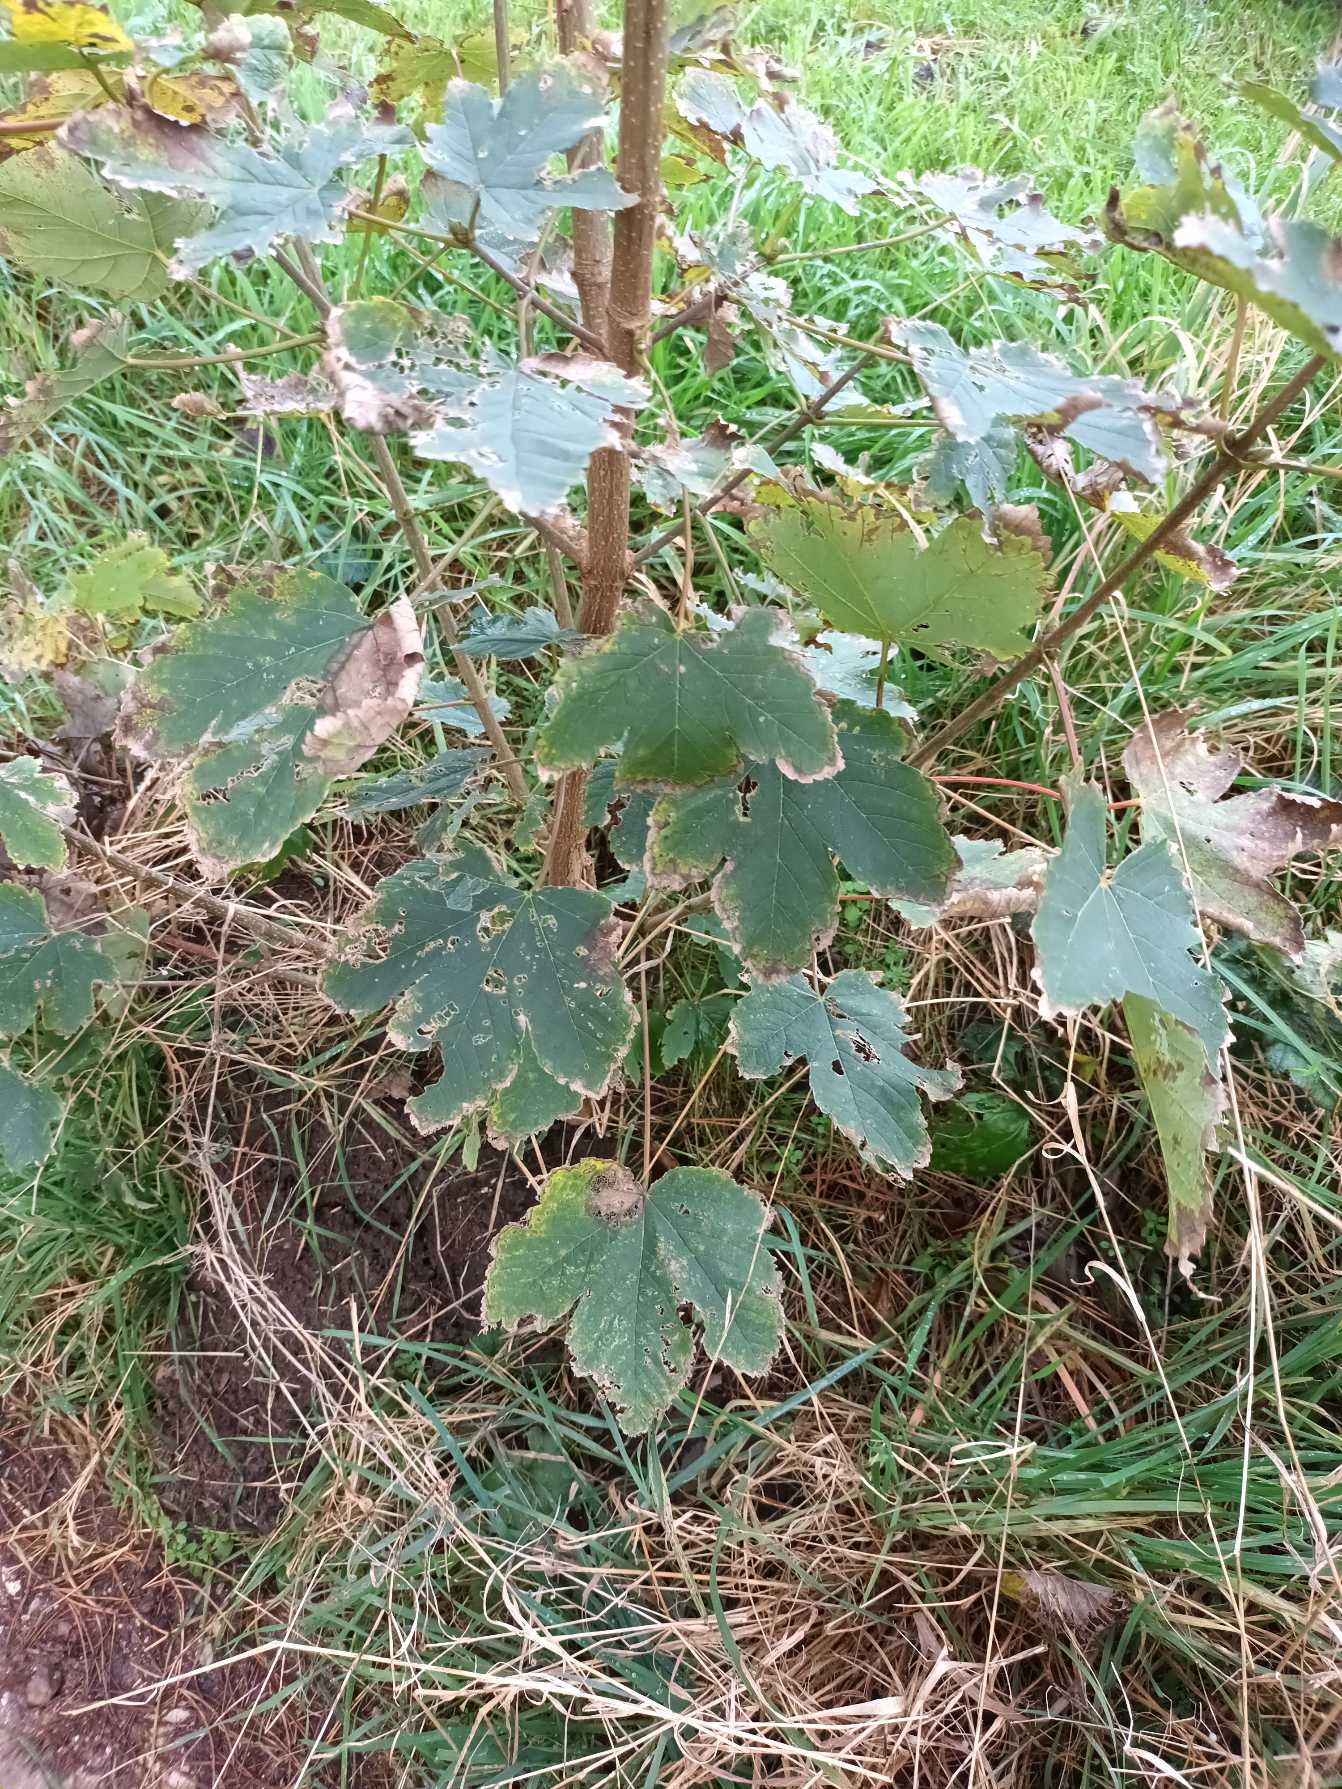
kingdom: Plantae
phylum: Tracheophyta
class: Magnoliopsida
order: Sapindales
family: Sapindaceae
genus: Acer
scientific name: Acer pseudoplatanus
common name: Ahorn
